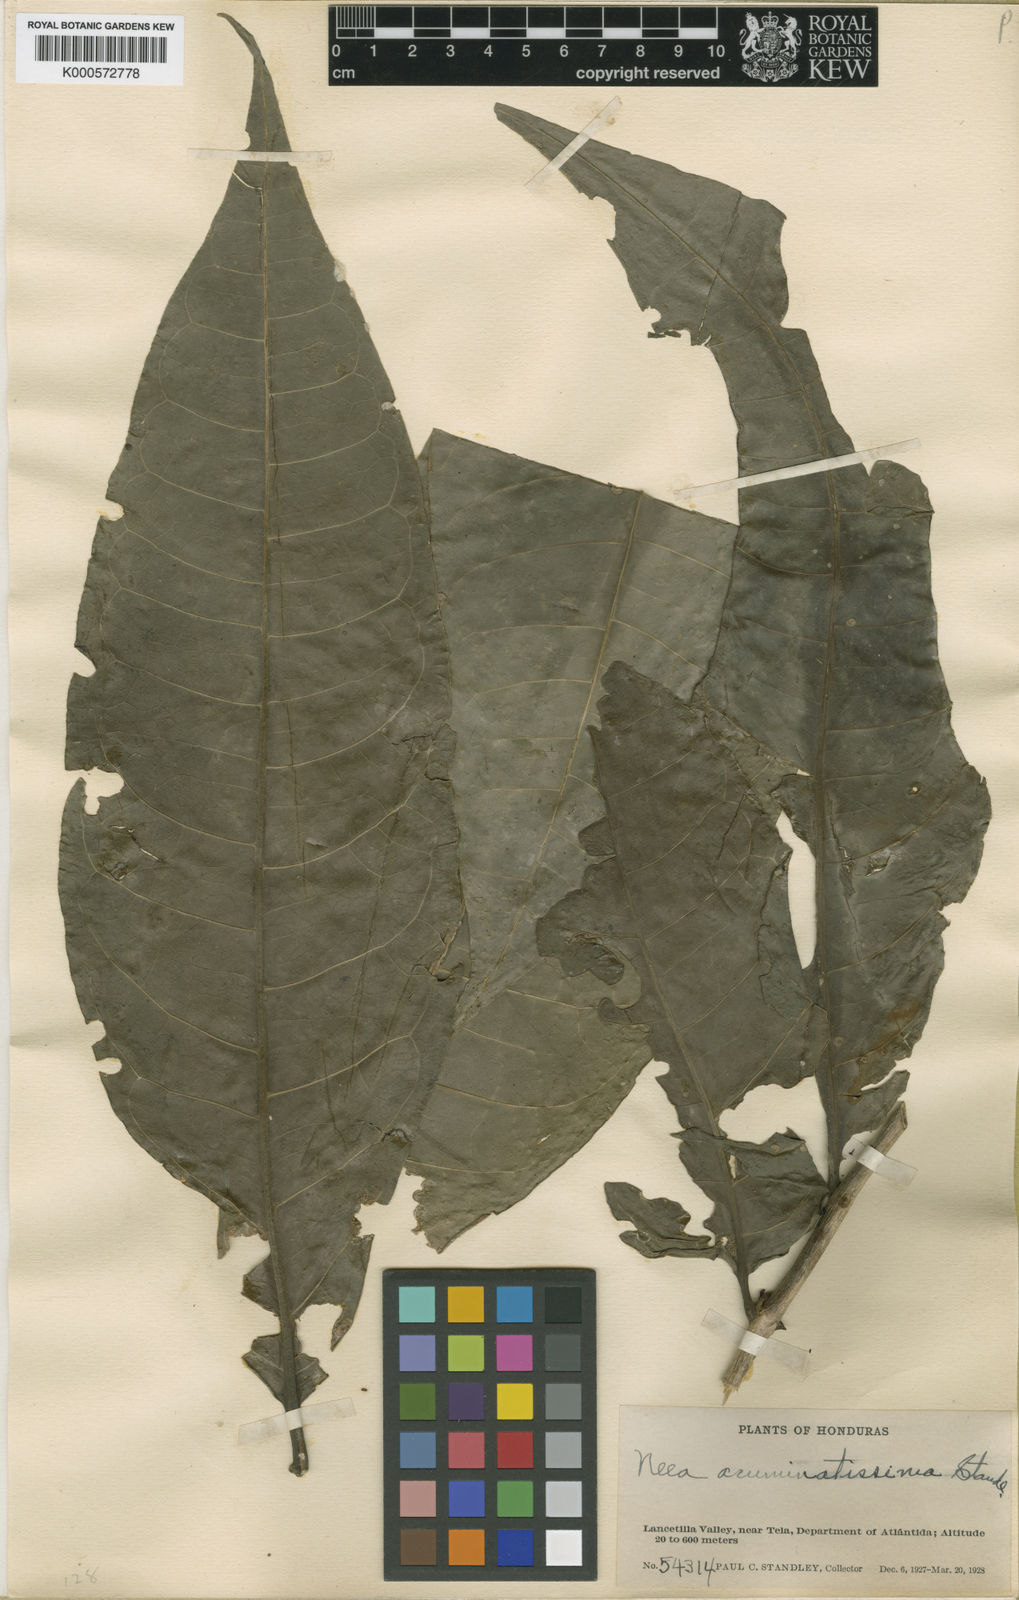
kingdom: Plantae
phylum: Tracheophyta
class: Magnoliopsida
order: Caryophyllales
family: Nyctaginaceae
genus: Neea
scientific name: Neea amplifolia
